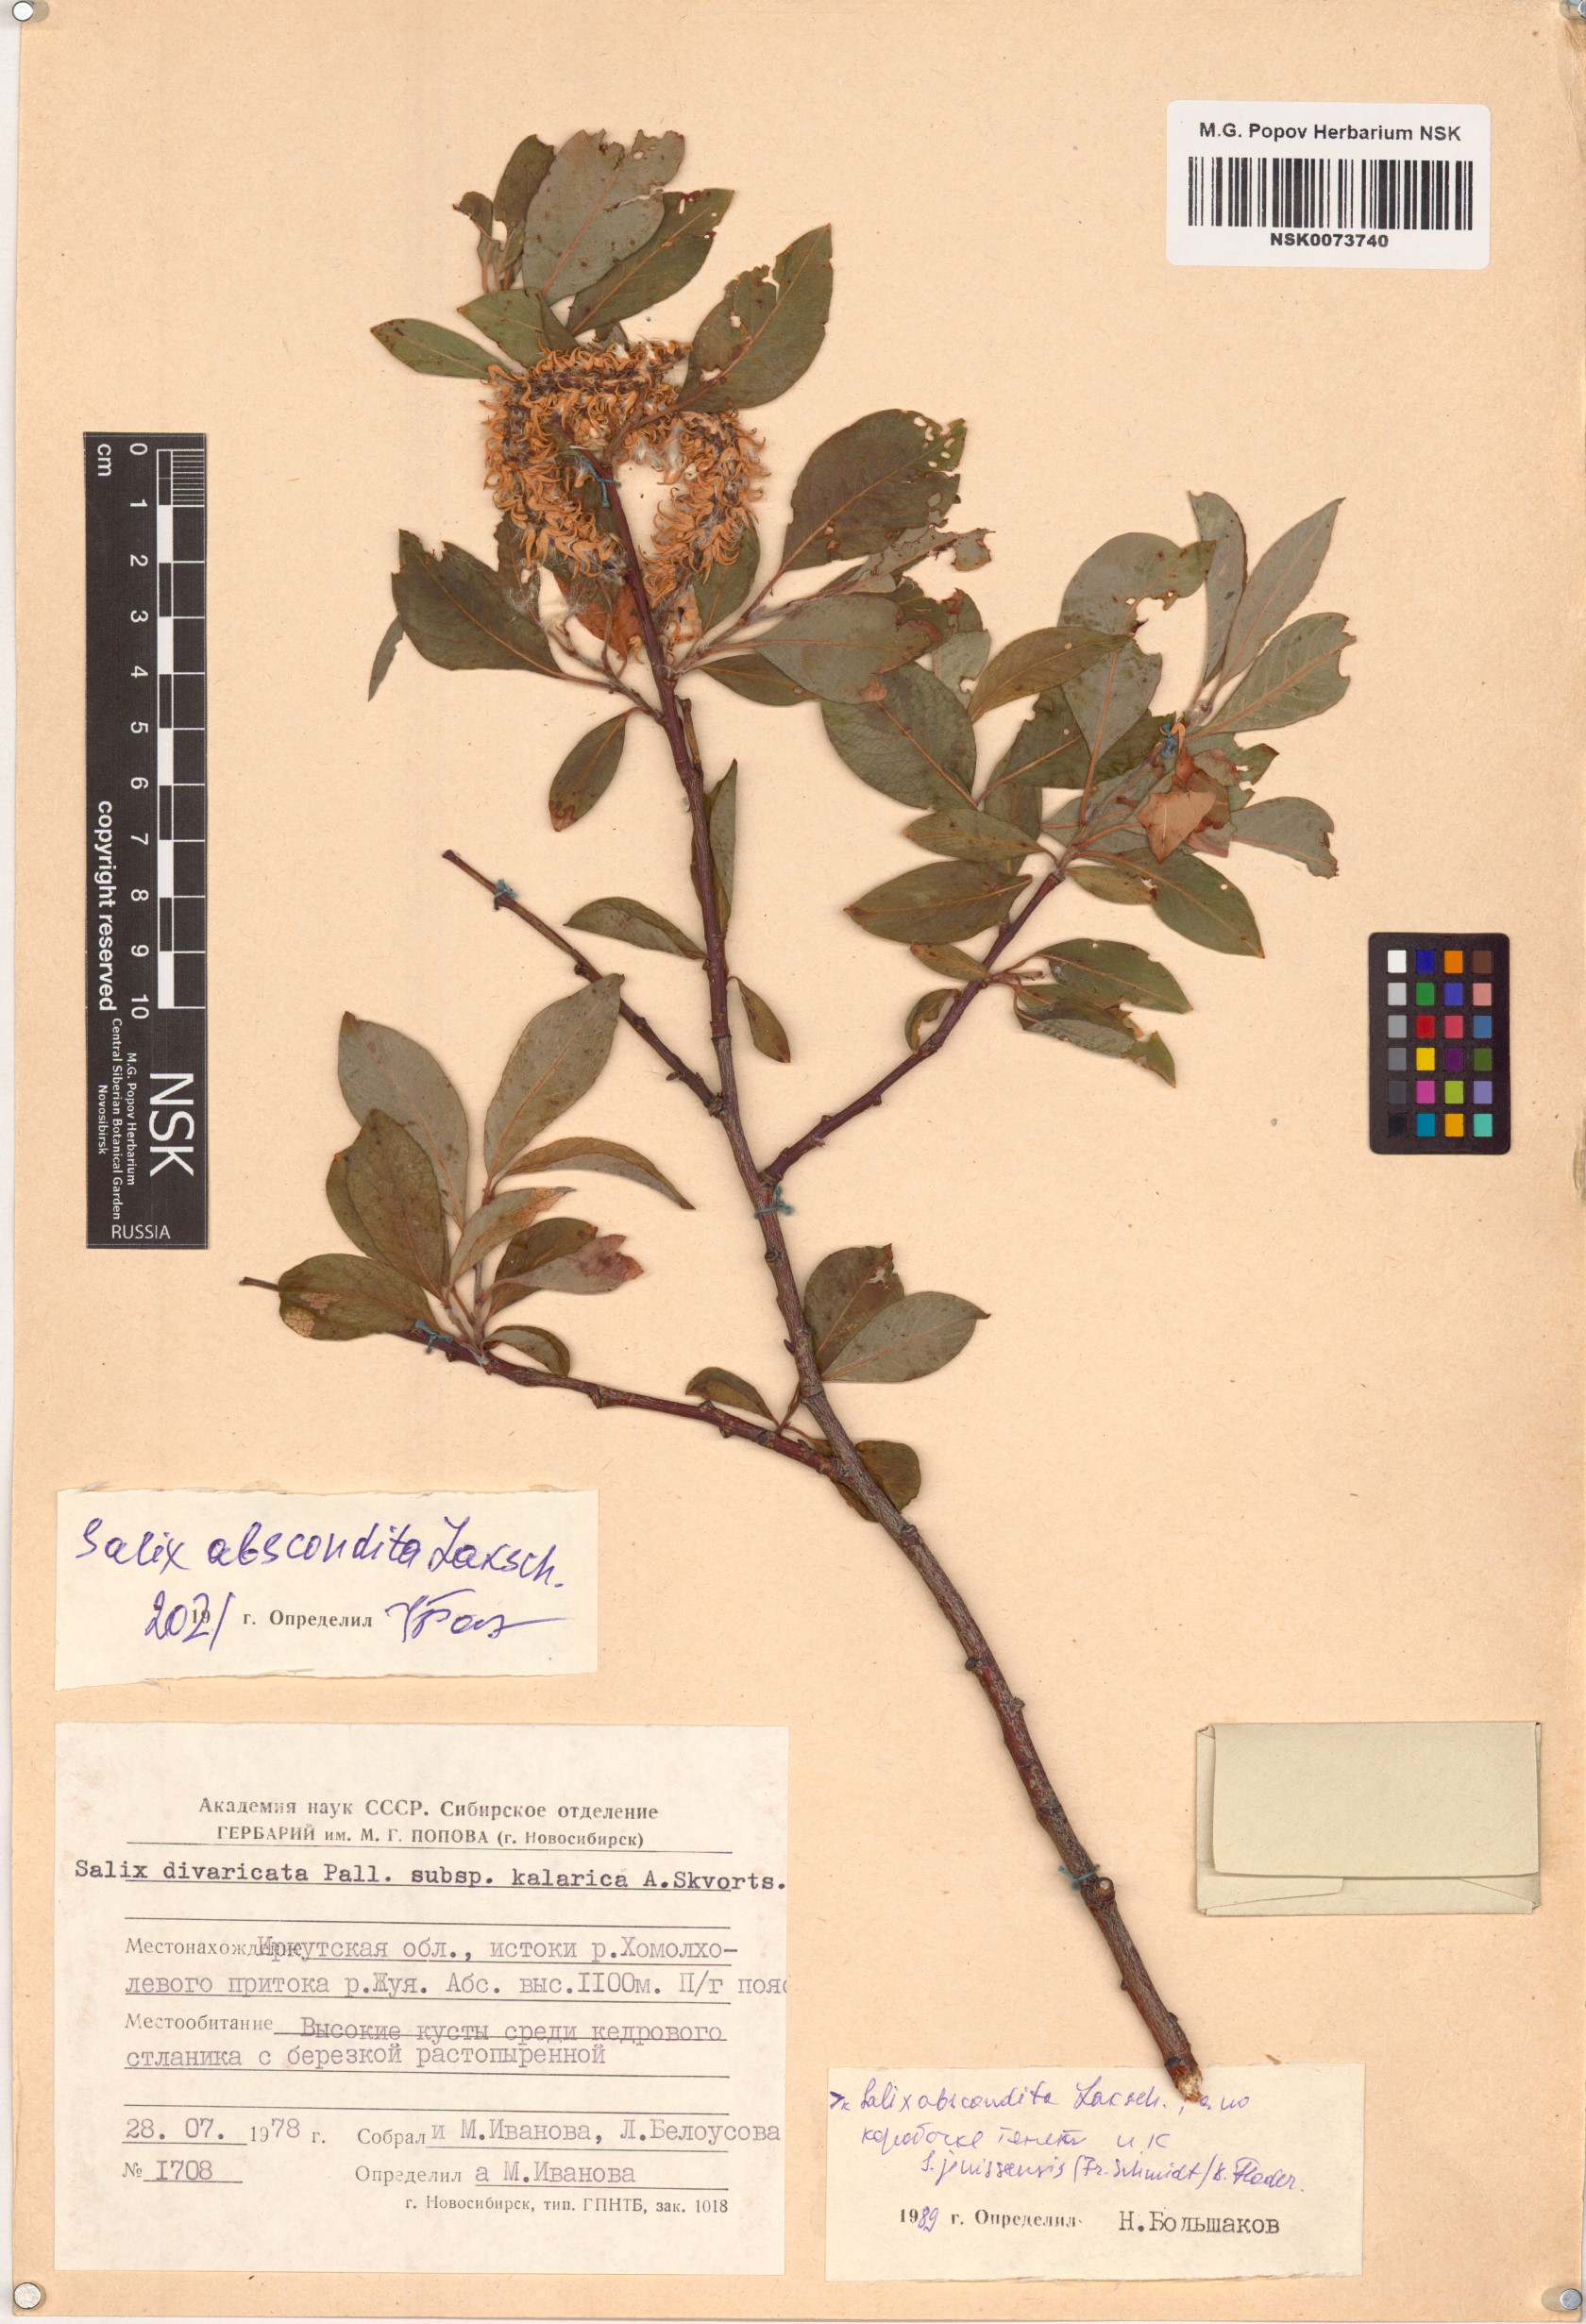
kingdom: Plantae
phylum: Tracheophyta
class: Magnoliopsida
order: Malpighiales
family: Salicaceae
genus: Salix
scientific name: Salix abscondita
